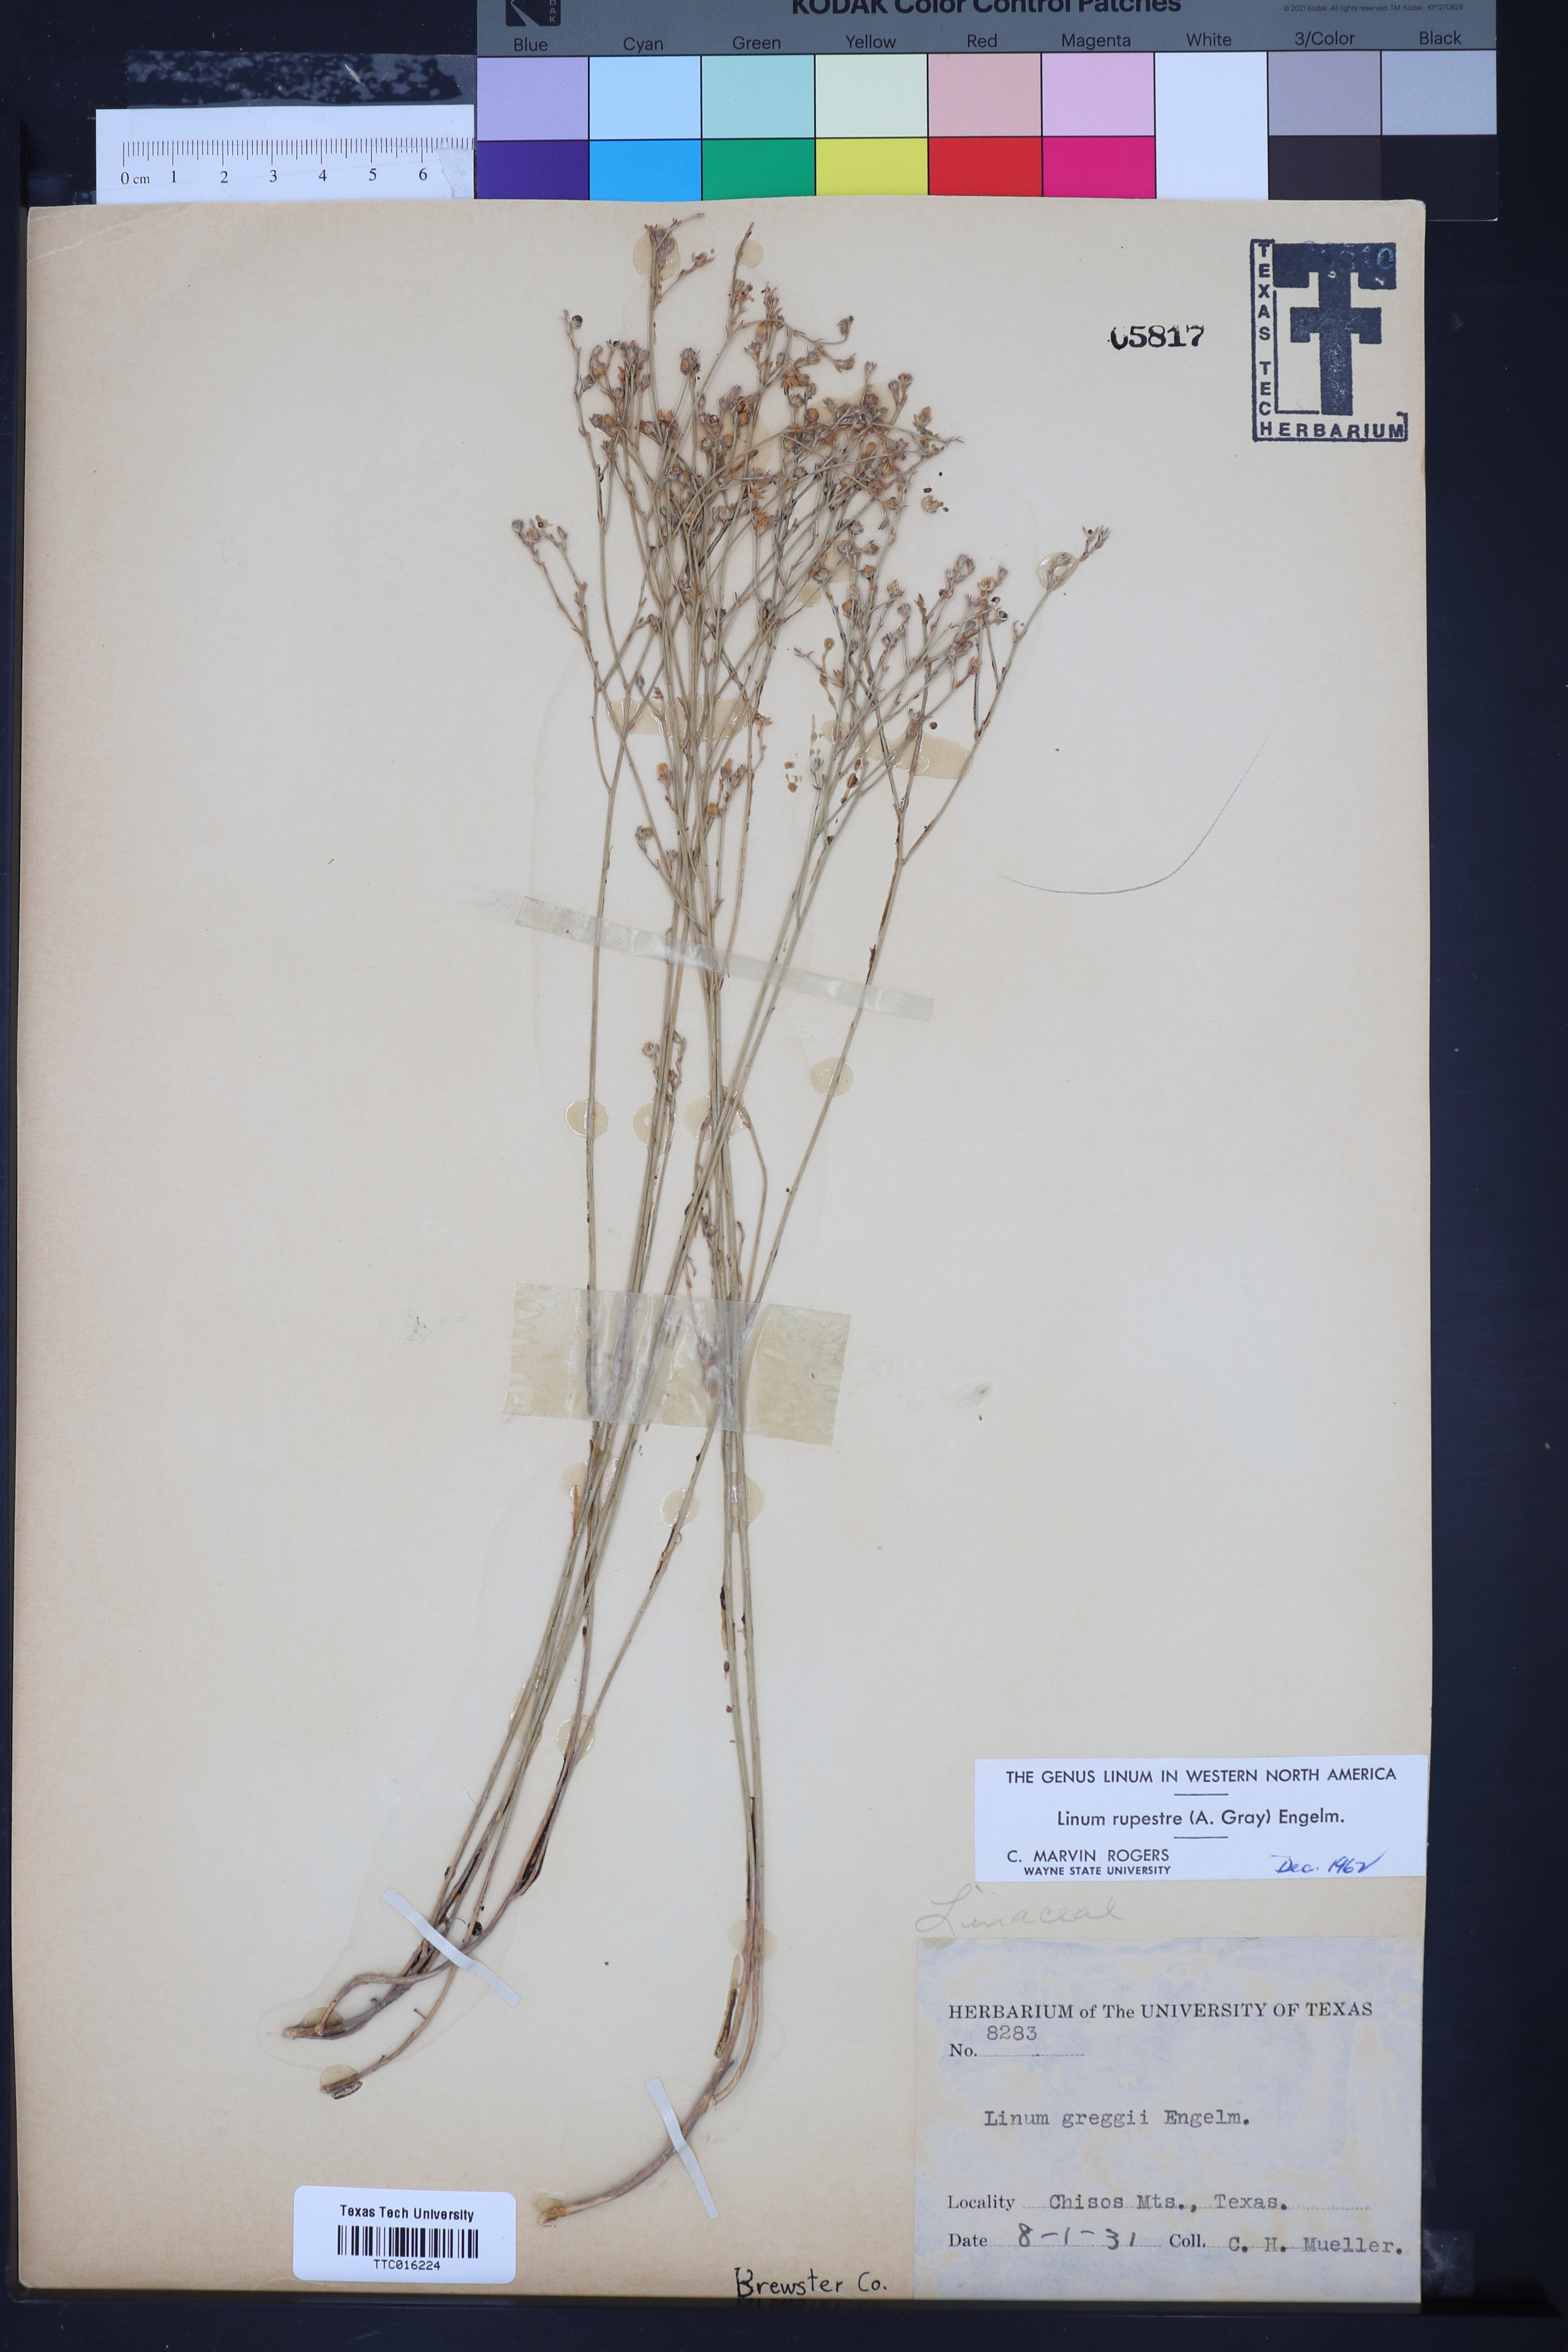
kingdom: Plantae
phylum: Tracheophyta
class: Magnoliopsida
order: Malpighiales
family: Linaceae
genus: Linum
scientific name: Linum rupestre
